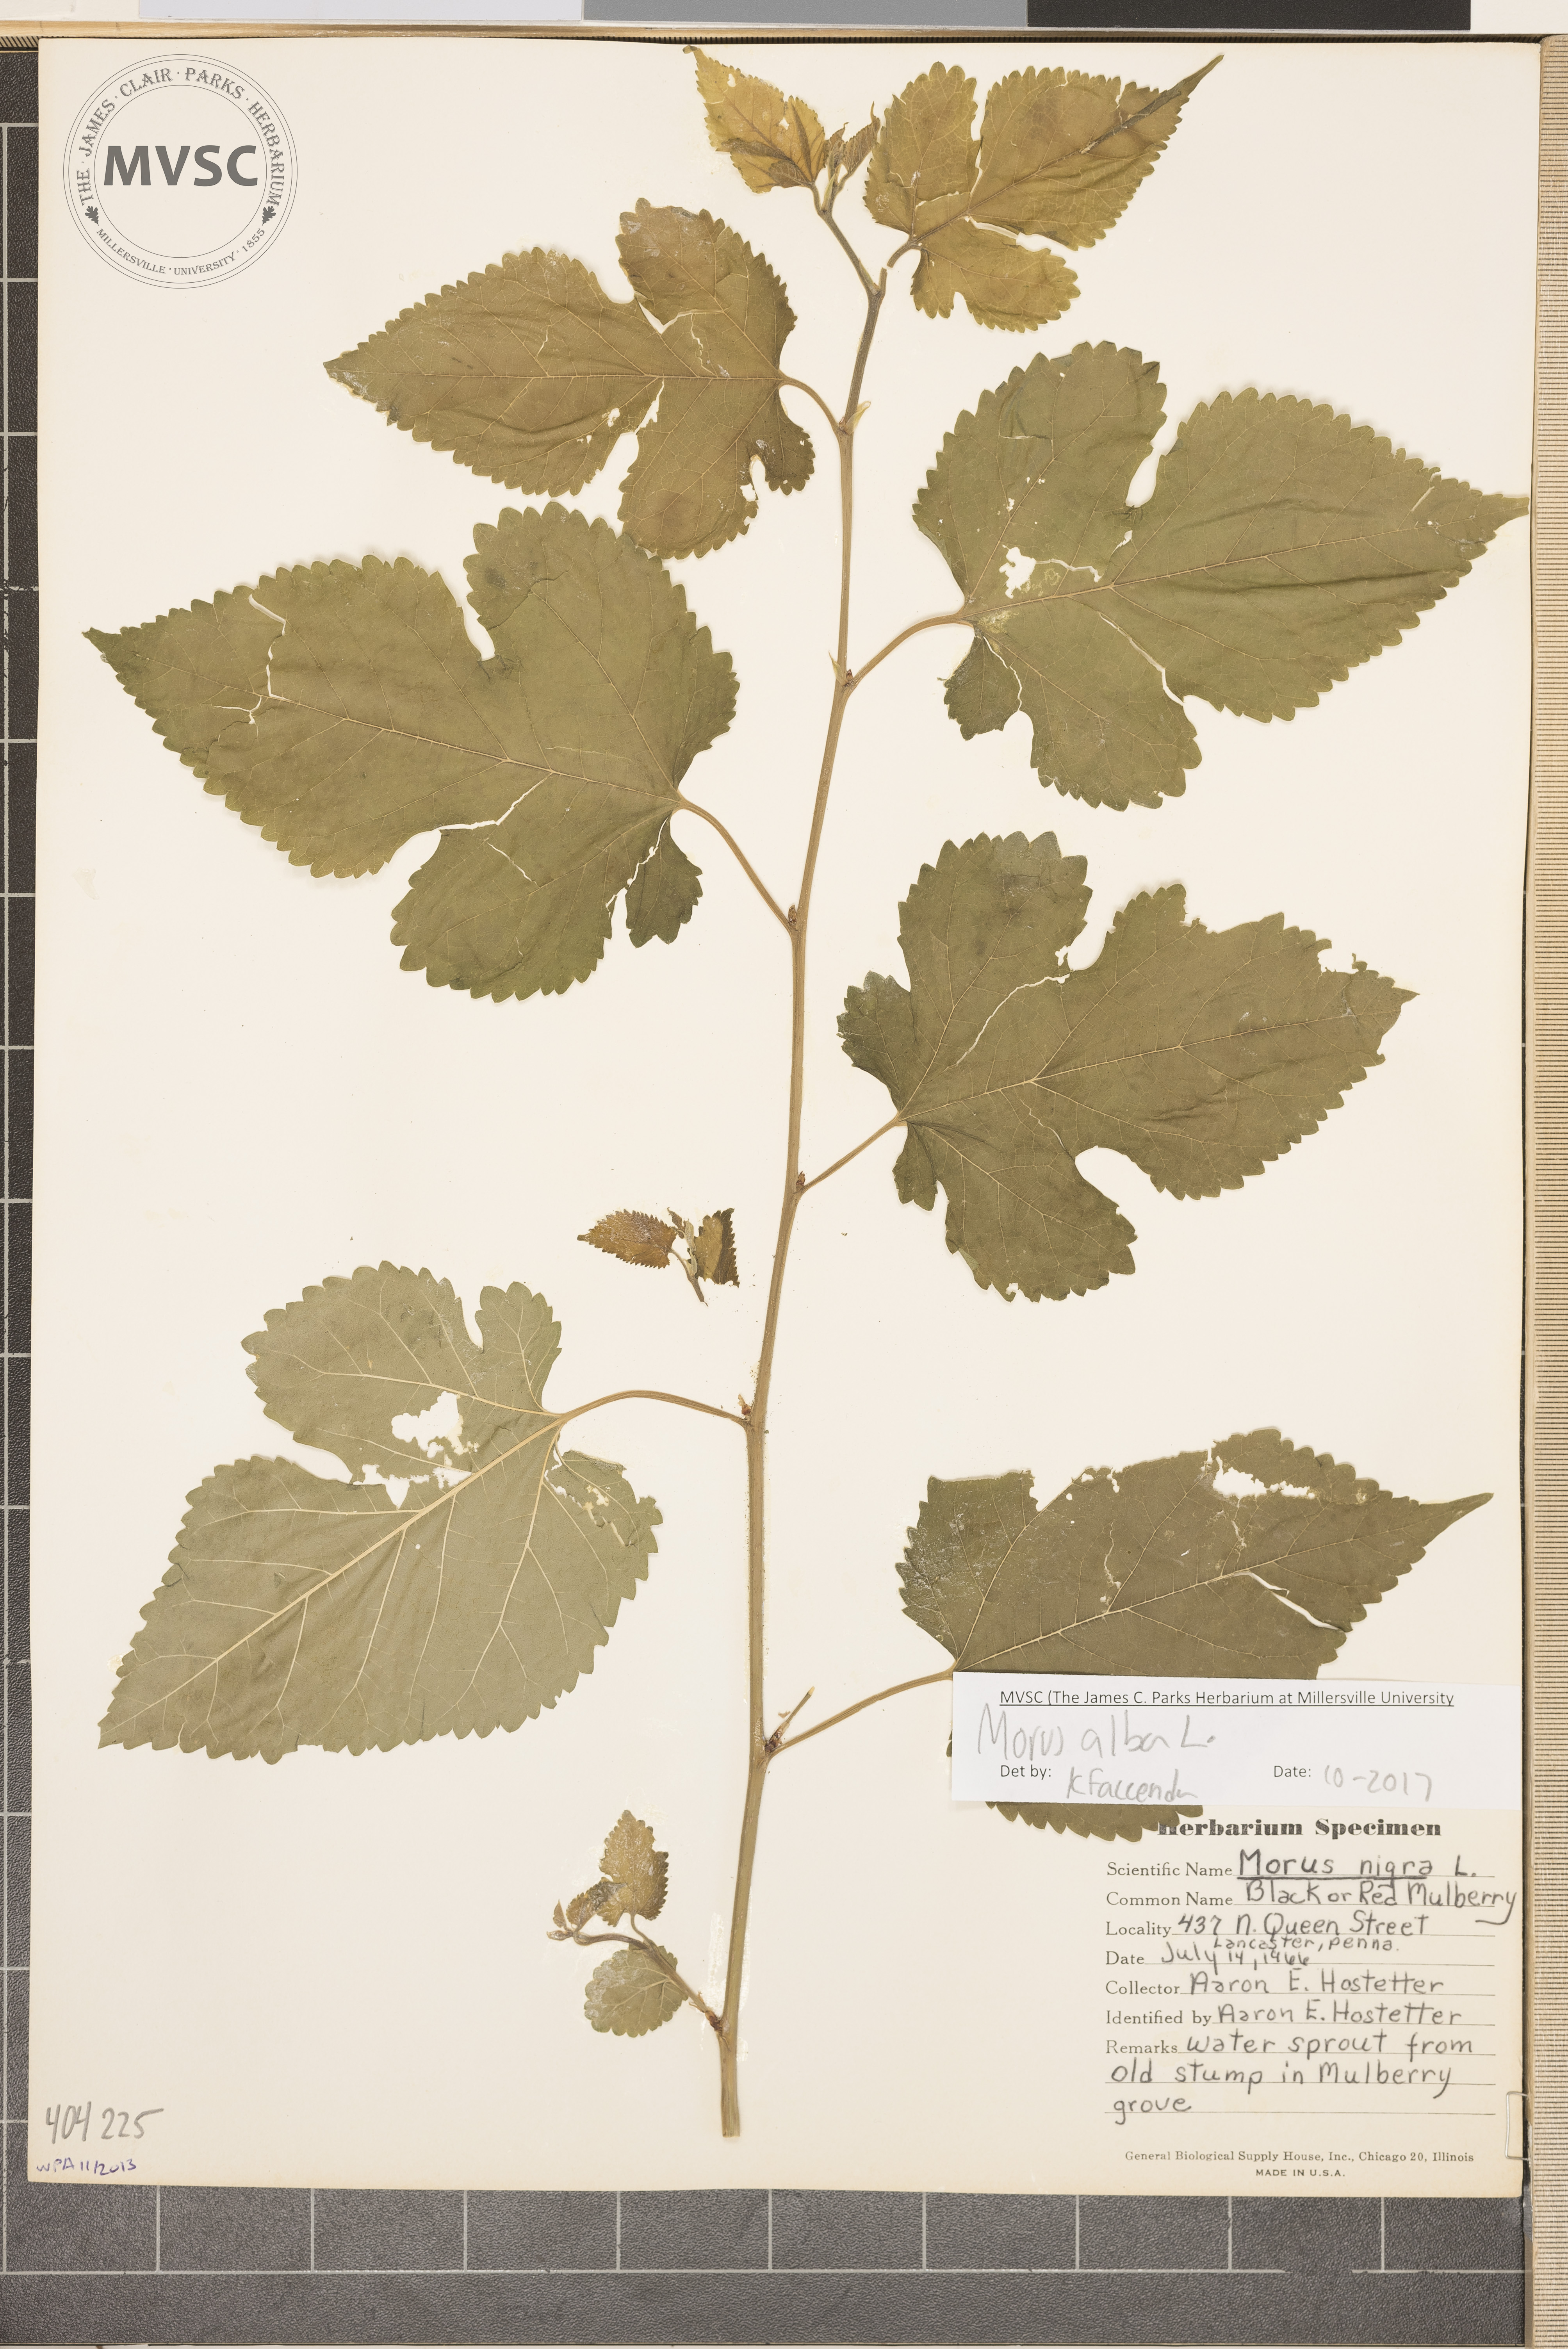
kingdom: Plantae
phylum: Tracheophyta
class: Magnoliopsida
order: Rosales
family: Moraceae
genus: Morus
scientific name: Morus alba
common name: White mulberry
